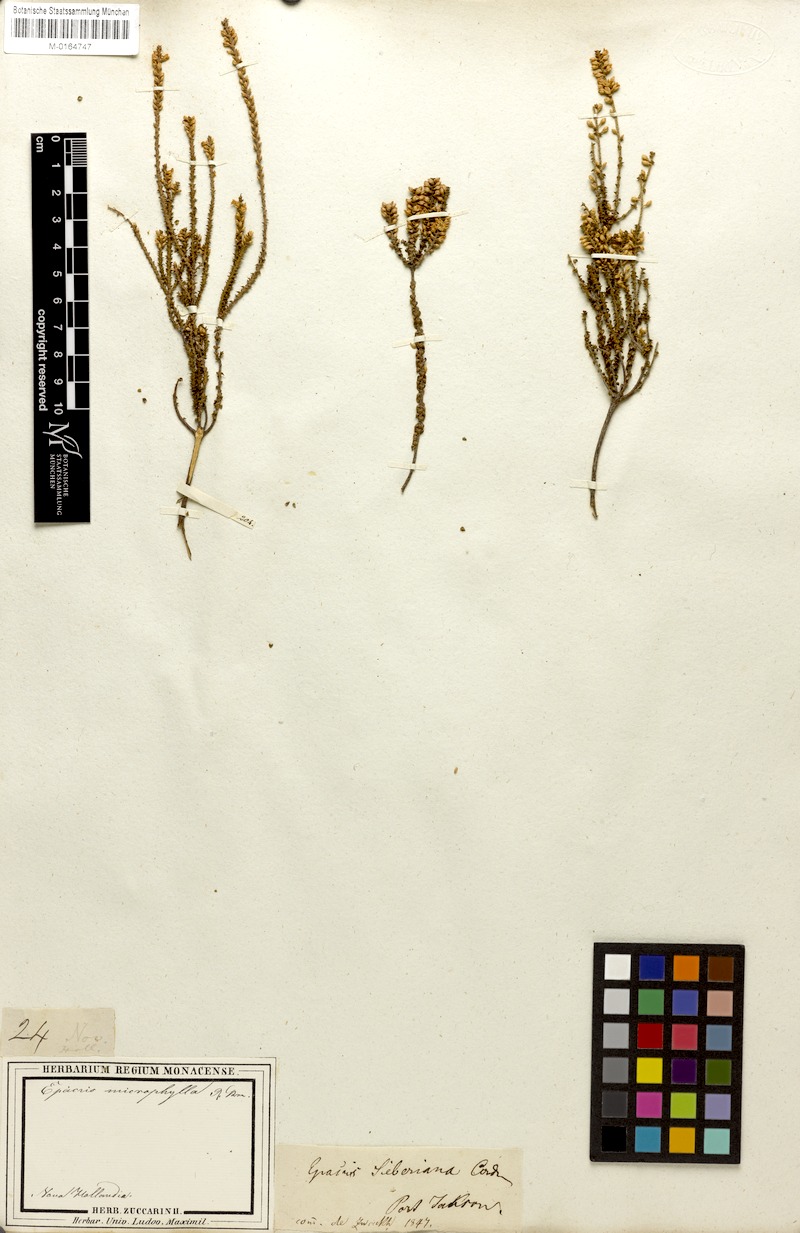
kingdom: Plantae
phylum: Tracheophyta
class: Magnoliopsida
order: Ericales
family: Ericaceae
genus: Epacris
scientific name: Epacris pulchella
